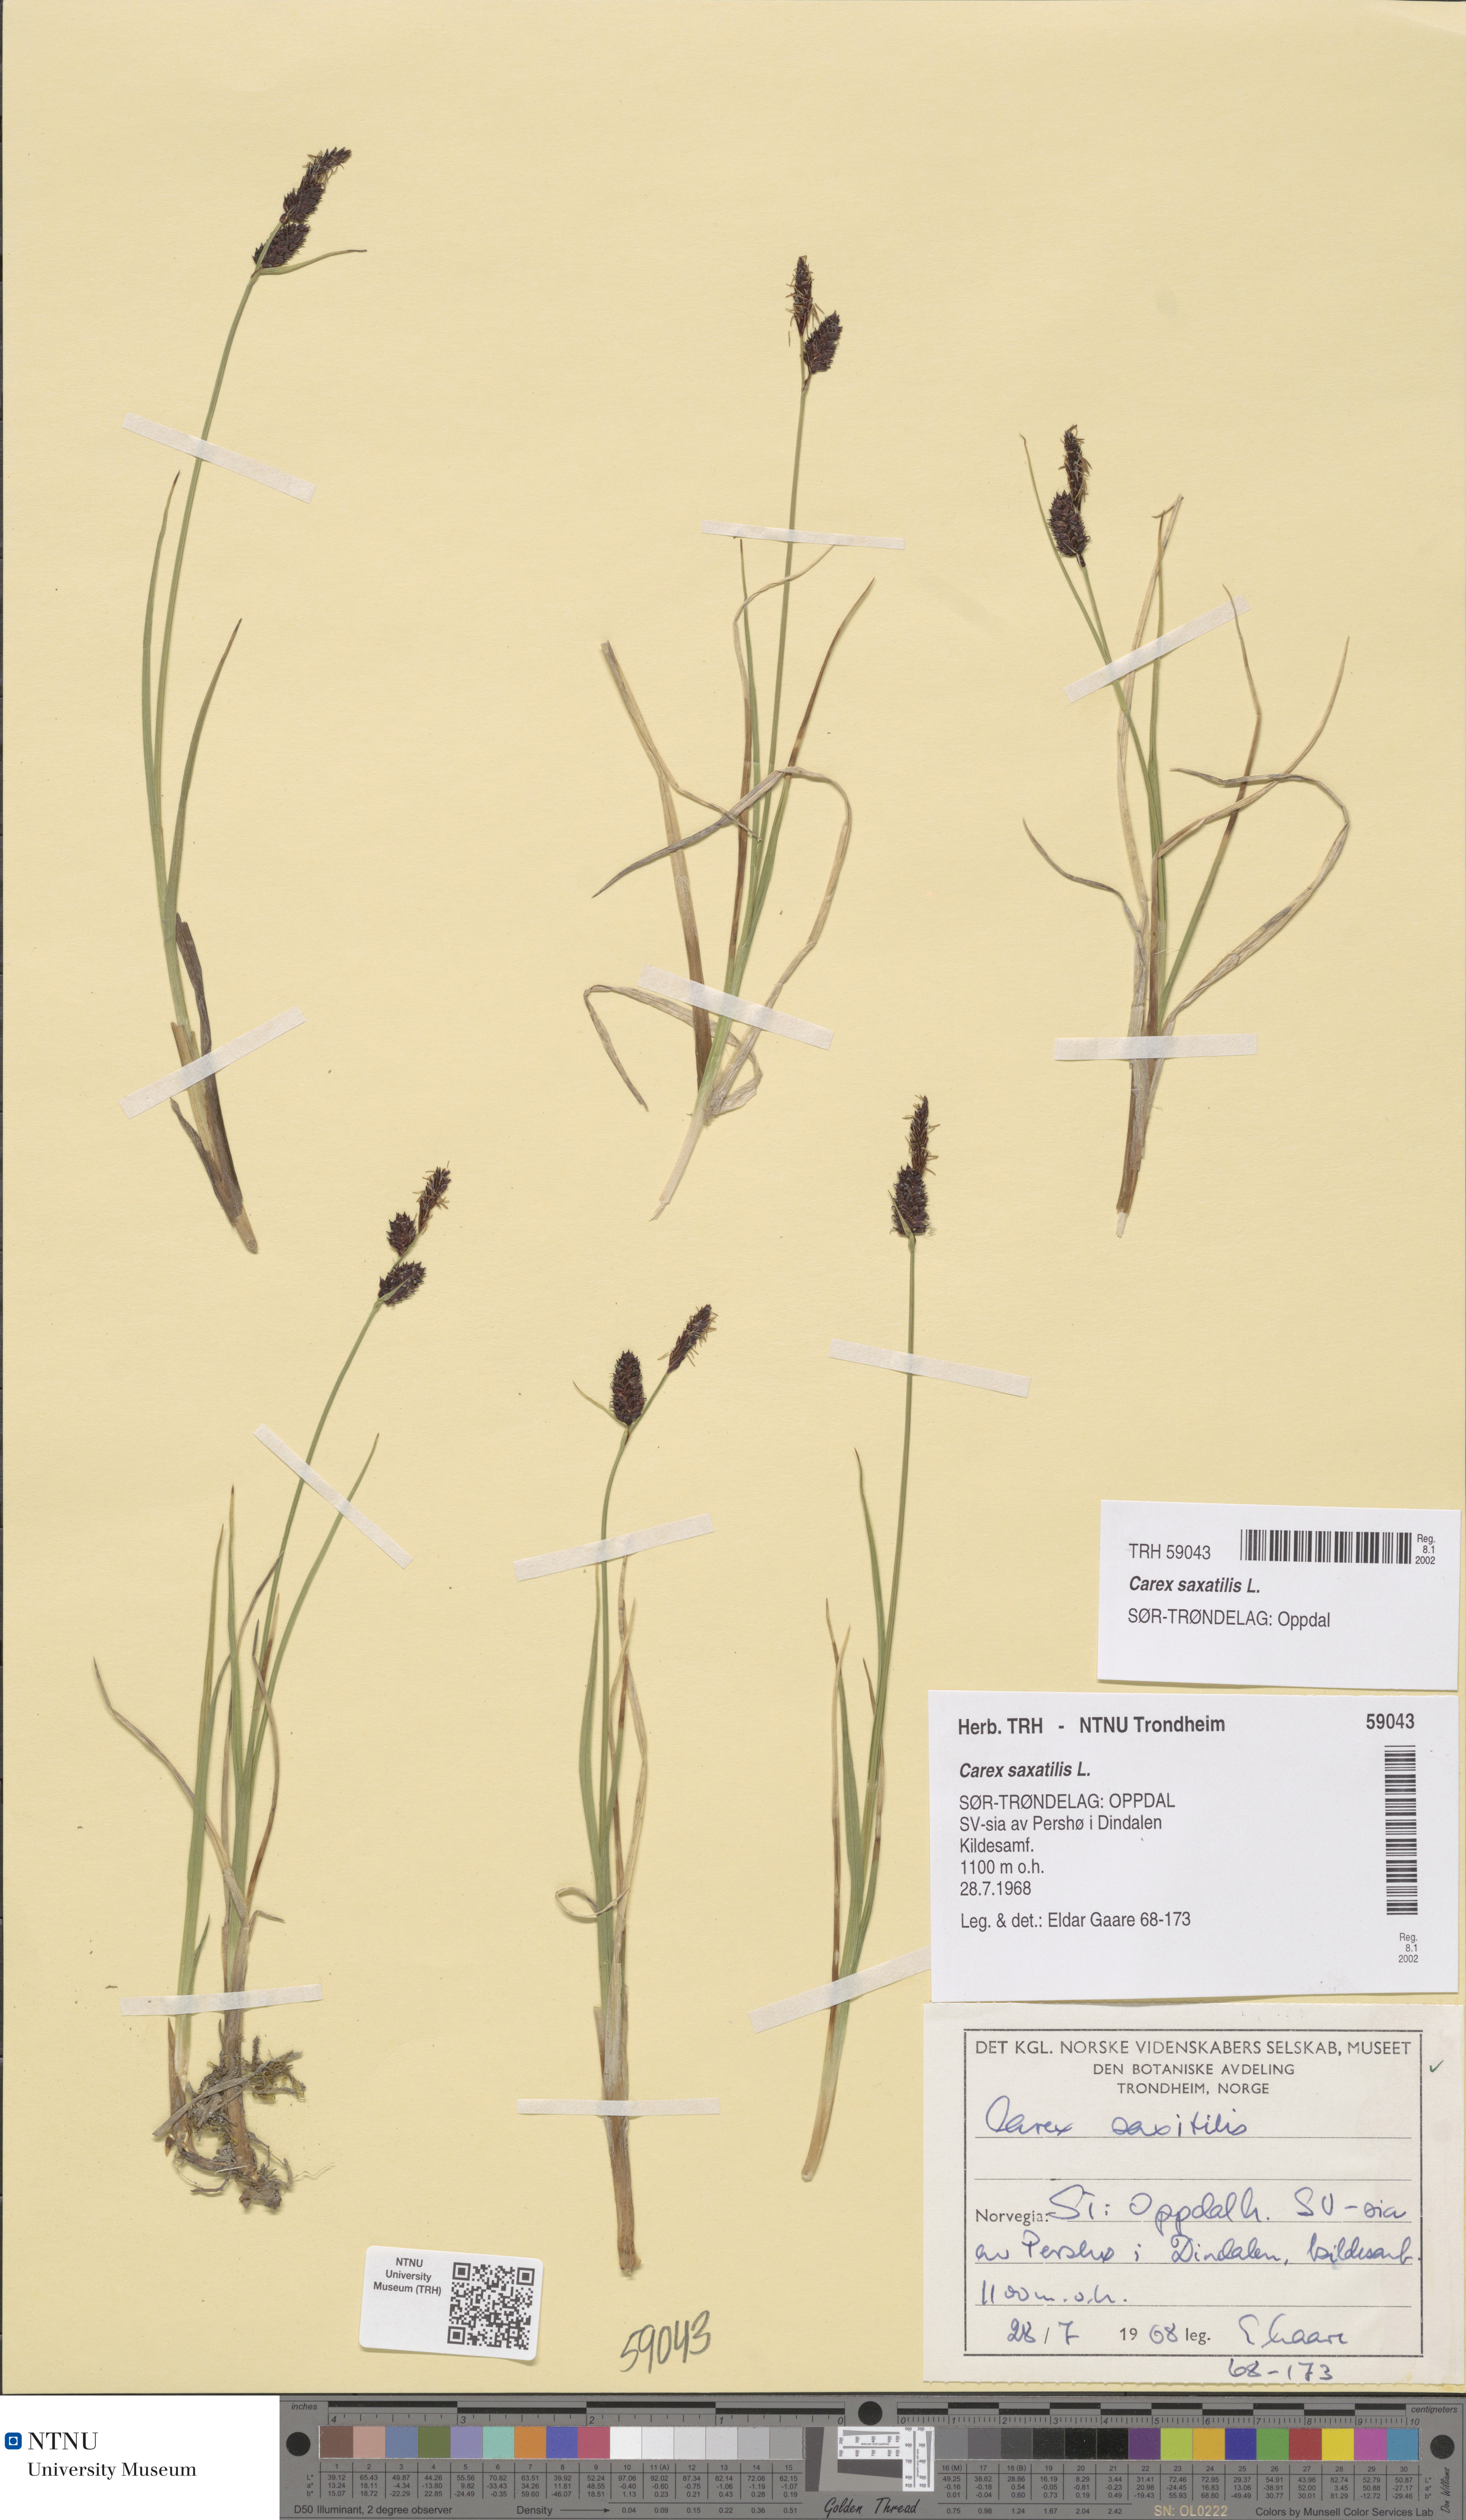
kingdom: Plantae
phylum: Tracheophyta
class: Liliopsida
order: Poales
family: Cyperaceae
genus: Carex
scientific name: Carex saxatilis
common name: Russet sedge
